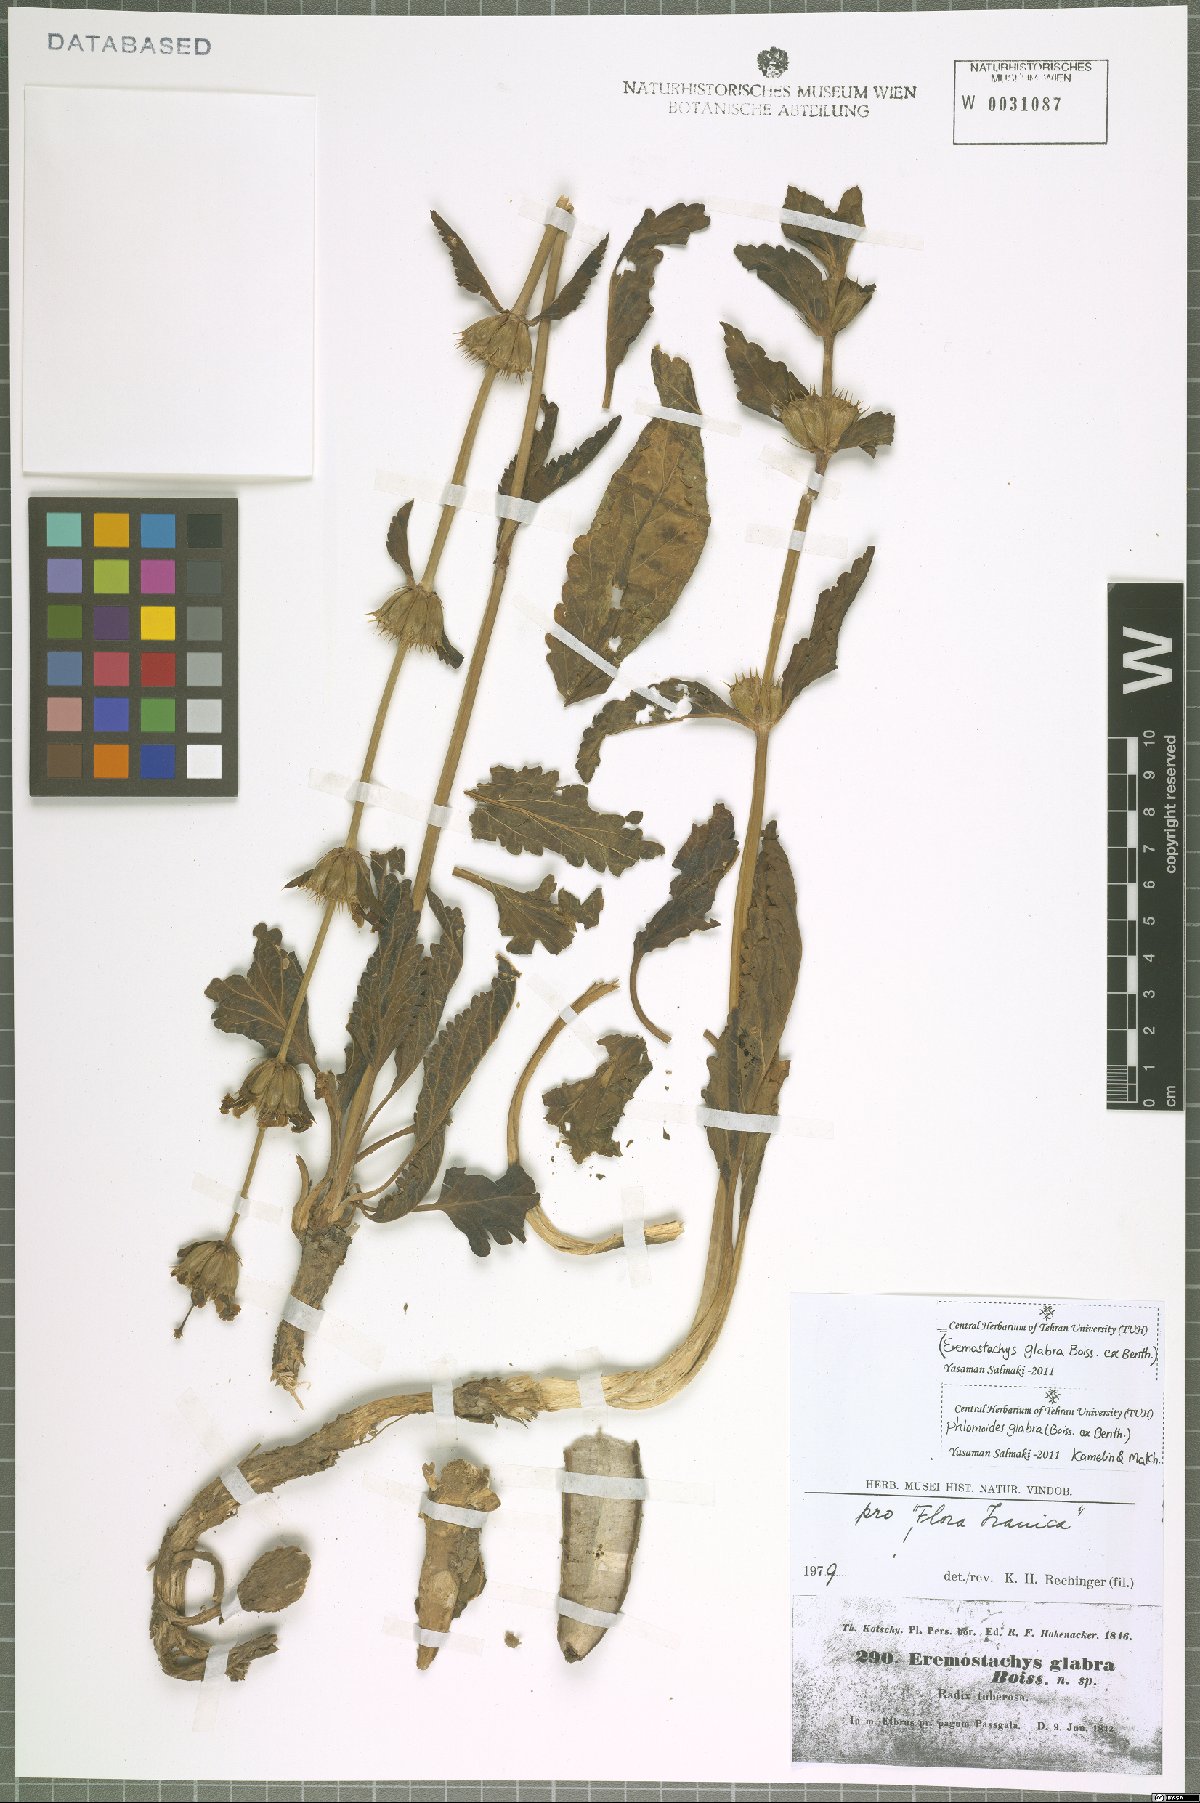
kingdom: Plantae
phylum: Tracheophyta
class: Magnoliopsida
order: Lamiales
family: Lamiaceae
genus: Phlomoides
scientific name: Phlomoides glabra
